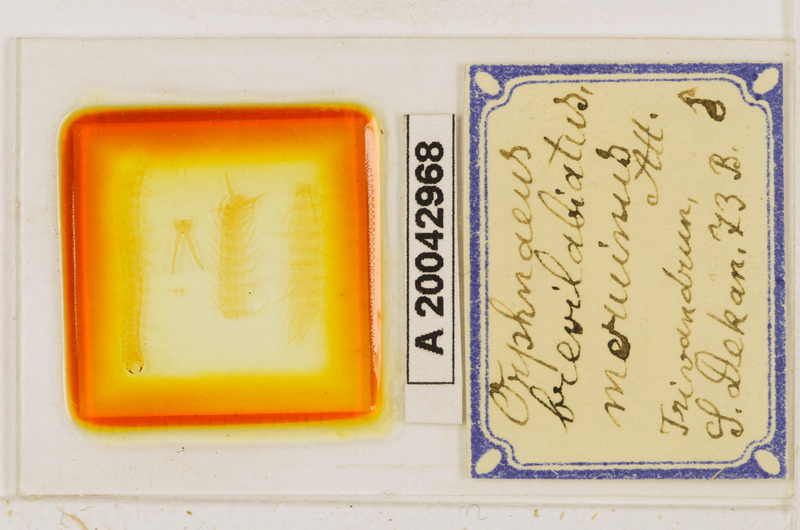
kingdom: Animalia
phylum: Arthropoda
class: Chilopoda
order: Geophilomorpha
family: Oryidae
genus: Orphnaeus
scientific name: Orphnaeus brasilianus
